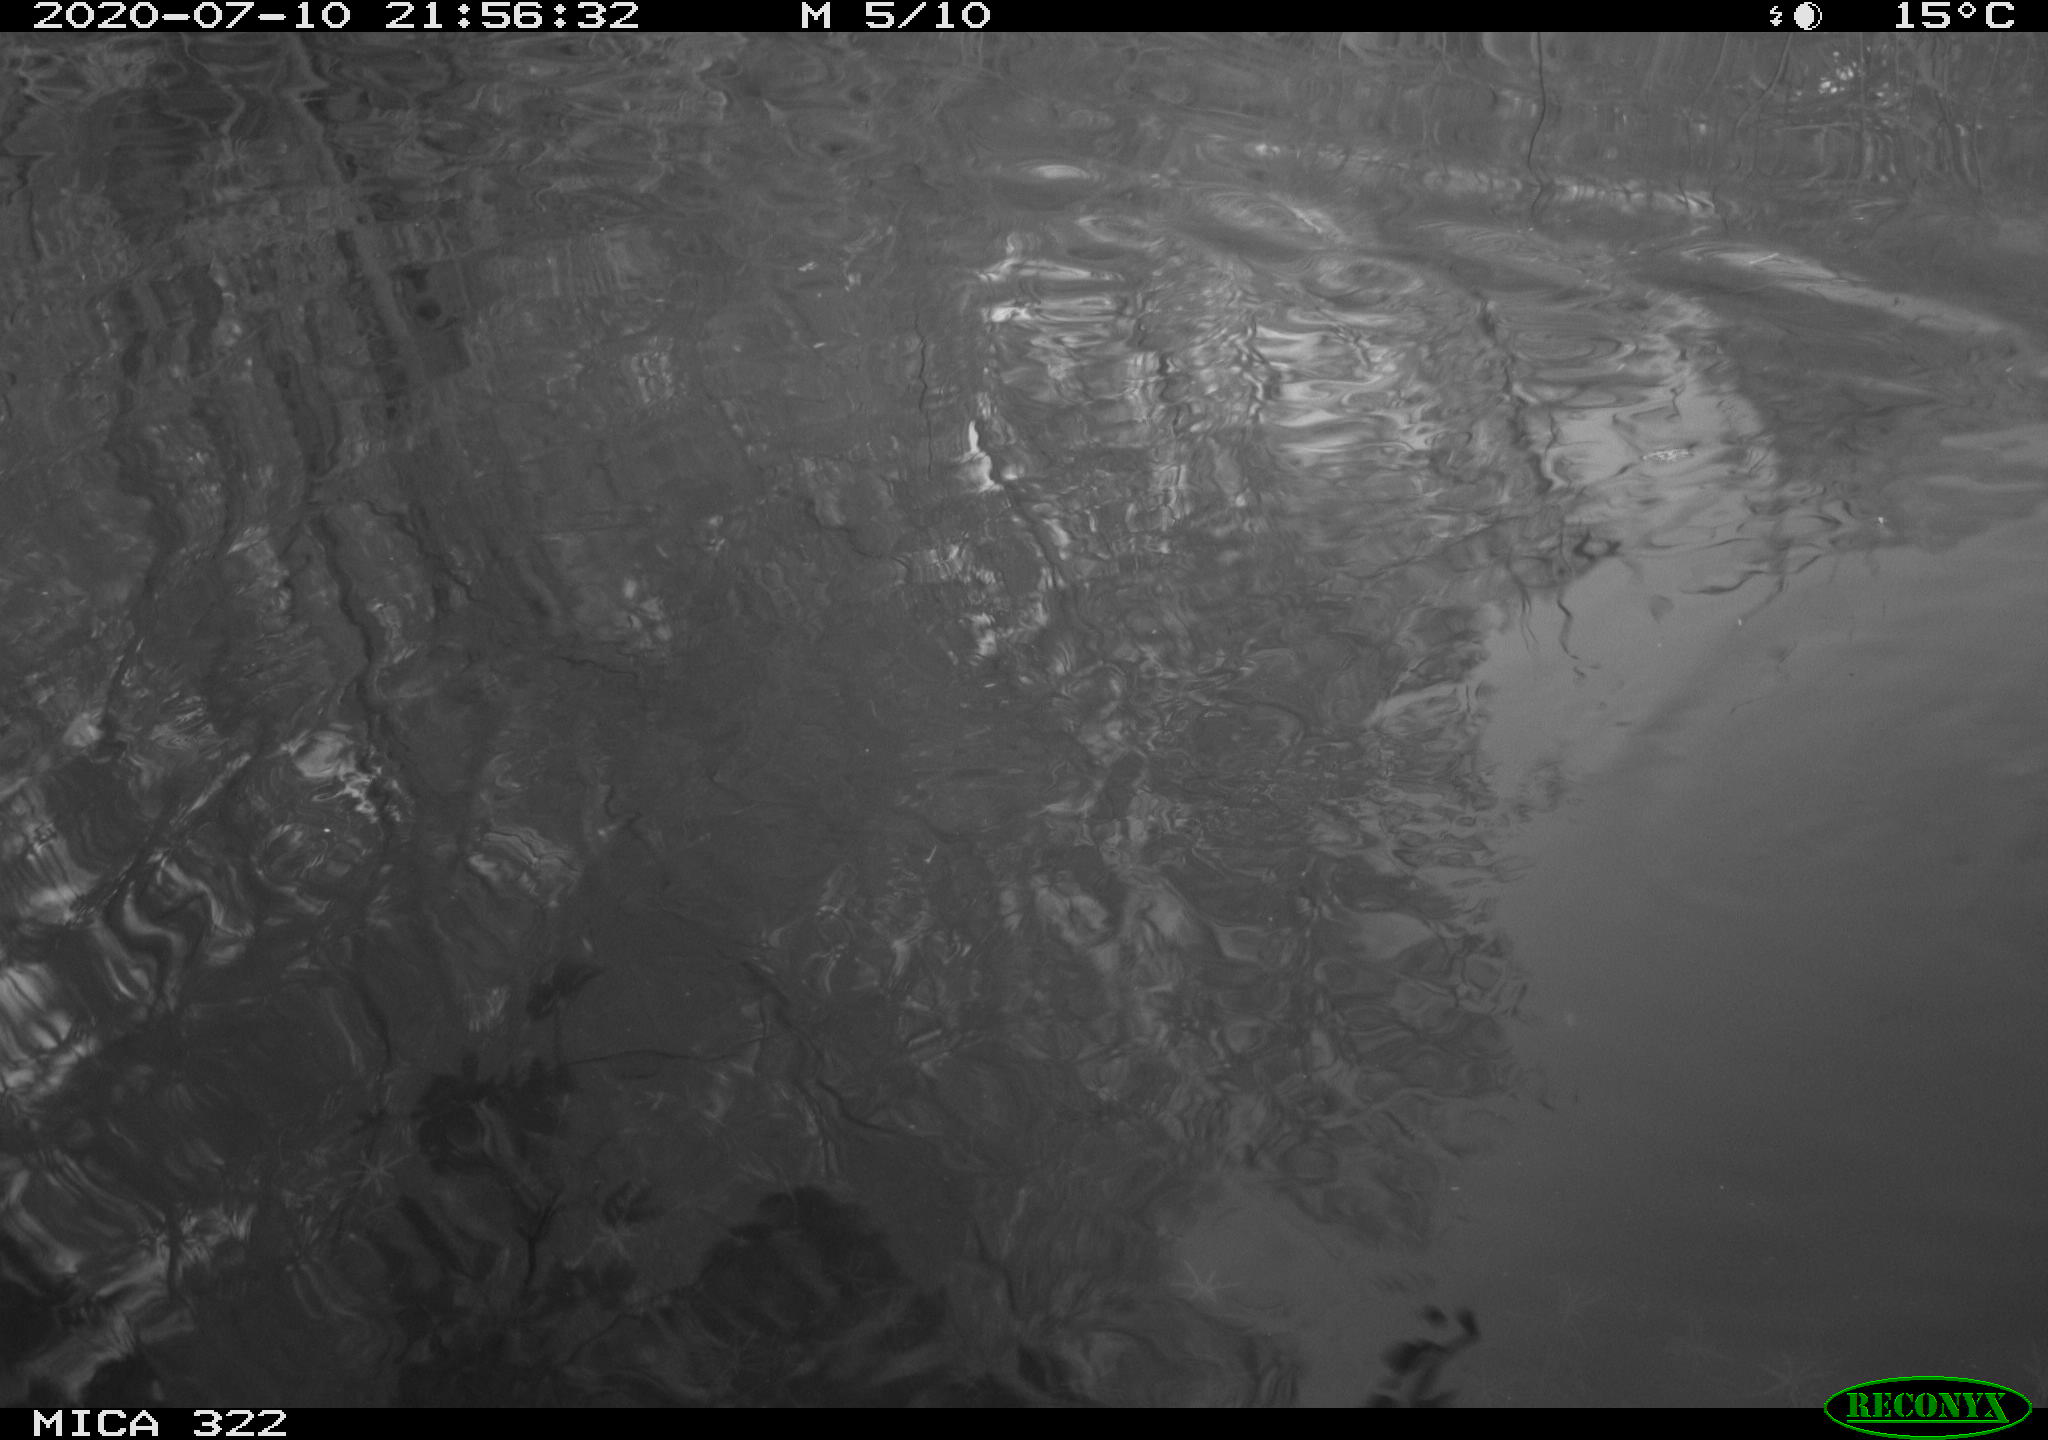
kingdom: Animalia
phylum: Chordata
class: Aves
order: Anseriformes
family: Anatidae
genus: Anas
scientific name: Anas platyrhynchos
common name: Mallard
